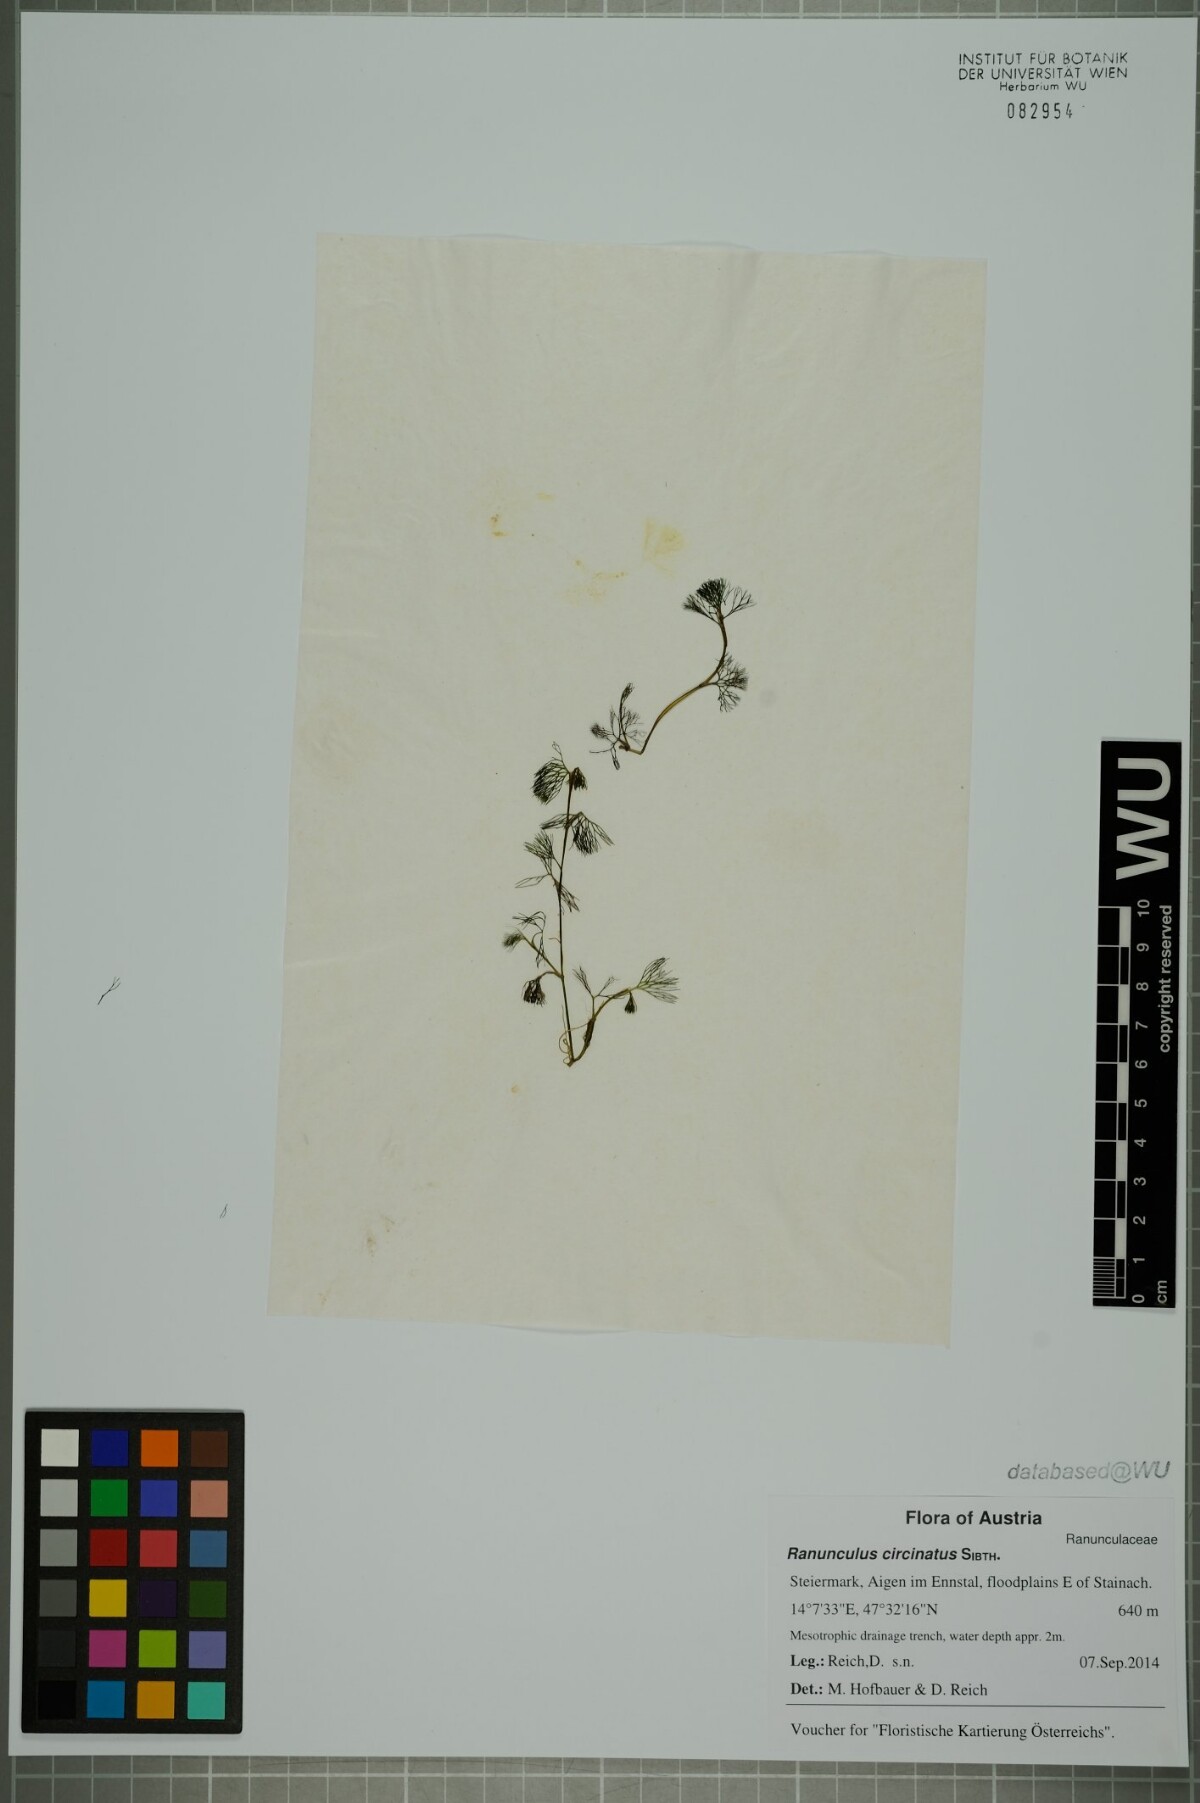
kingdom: Plantae
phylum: Tracheophyta
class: Magnoliopsida
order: Ranunculales
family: Ranunculaceae
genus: Ranunculus
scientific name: Ranunculus circinatus
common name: Fan-leaved water-crowfoot
